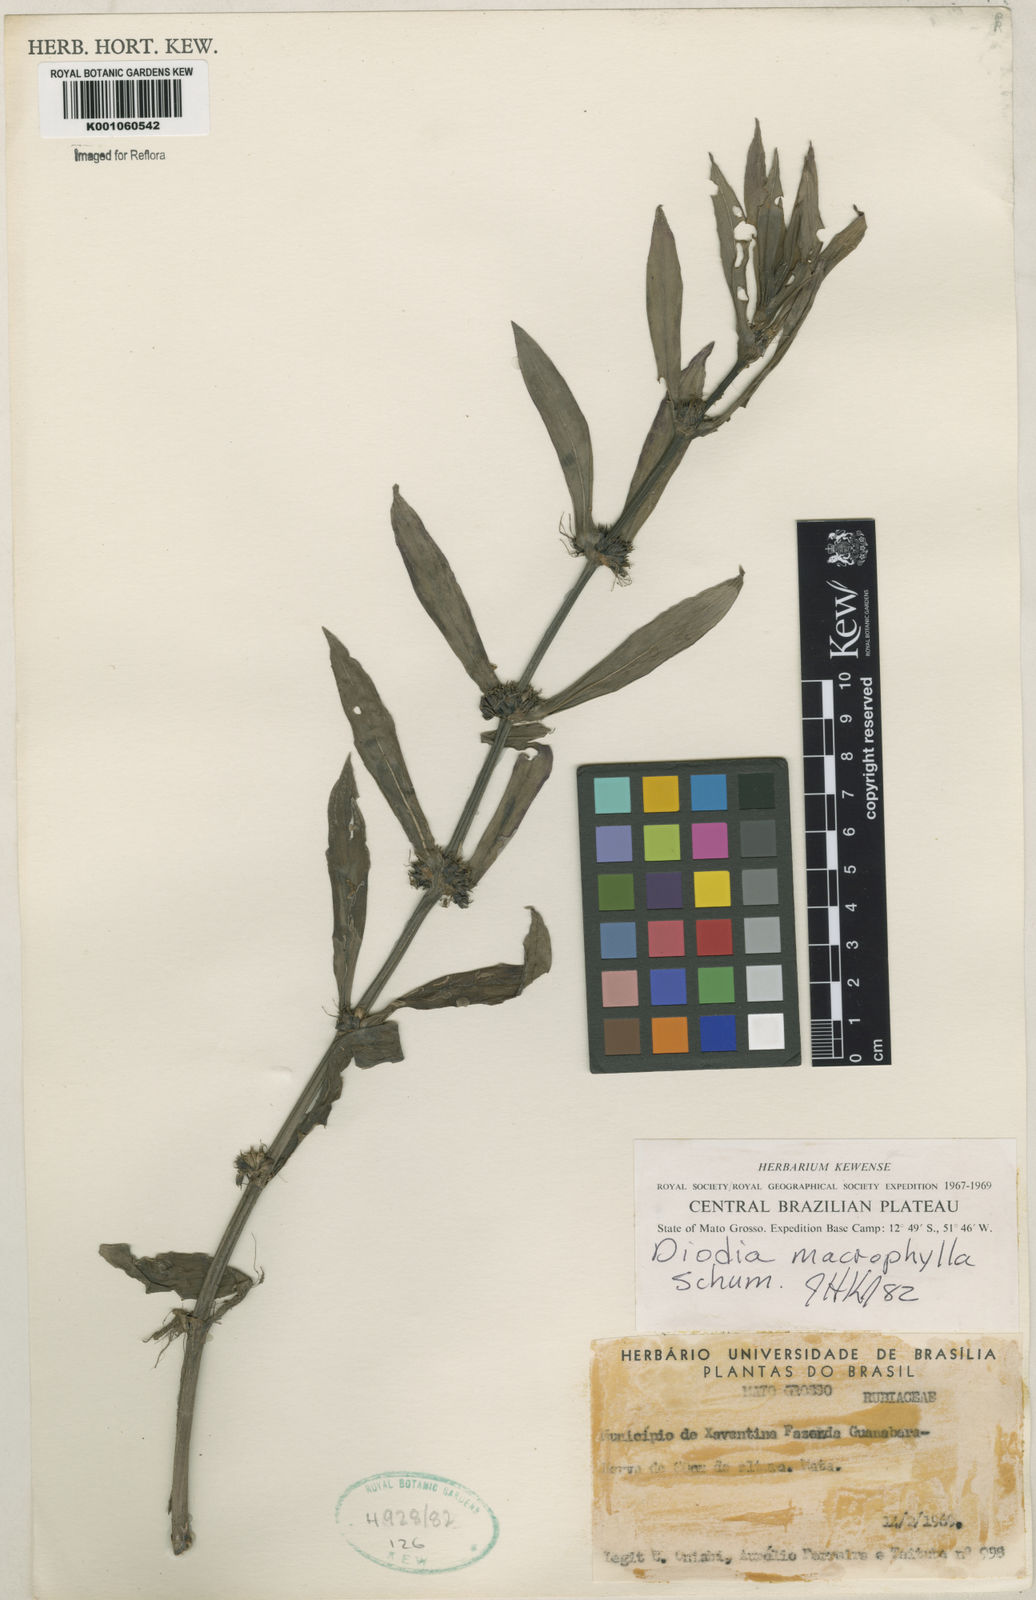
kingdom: Plantae
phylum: Tracheophyta
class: Magnoliopsida
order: Gentianales
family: Rubiaceae
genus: Diodia
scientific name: Diodia macrophylla
